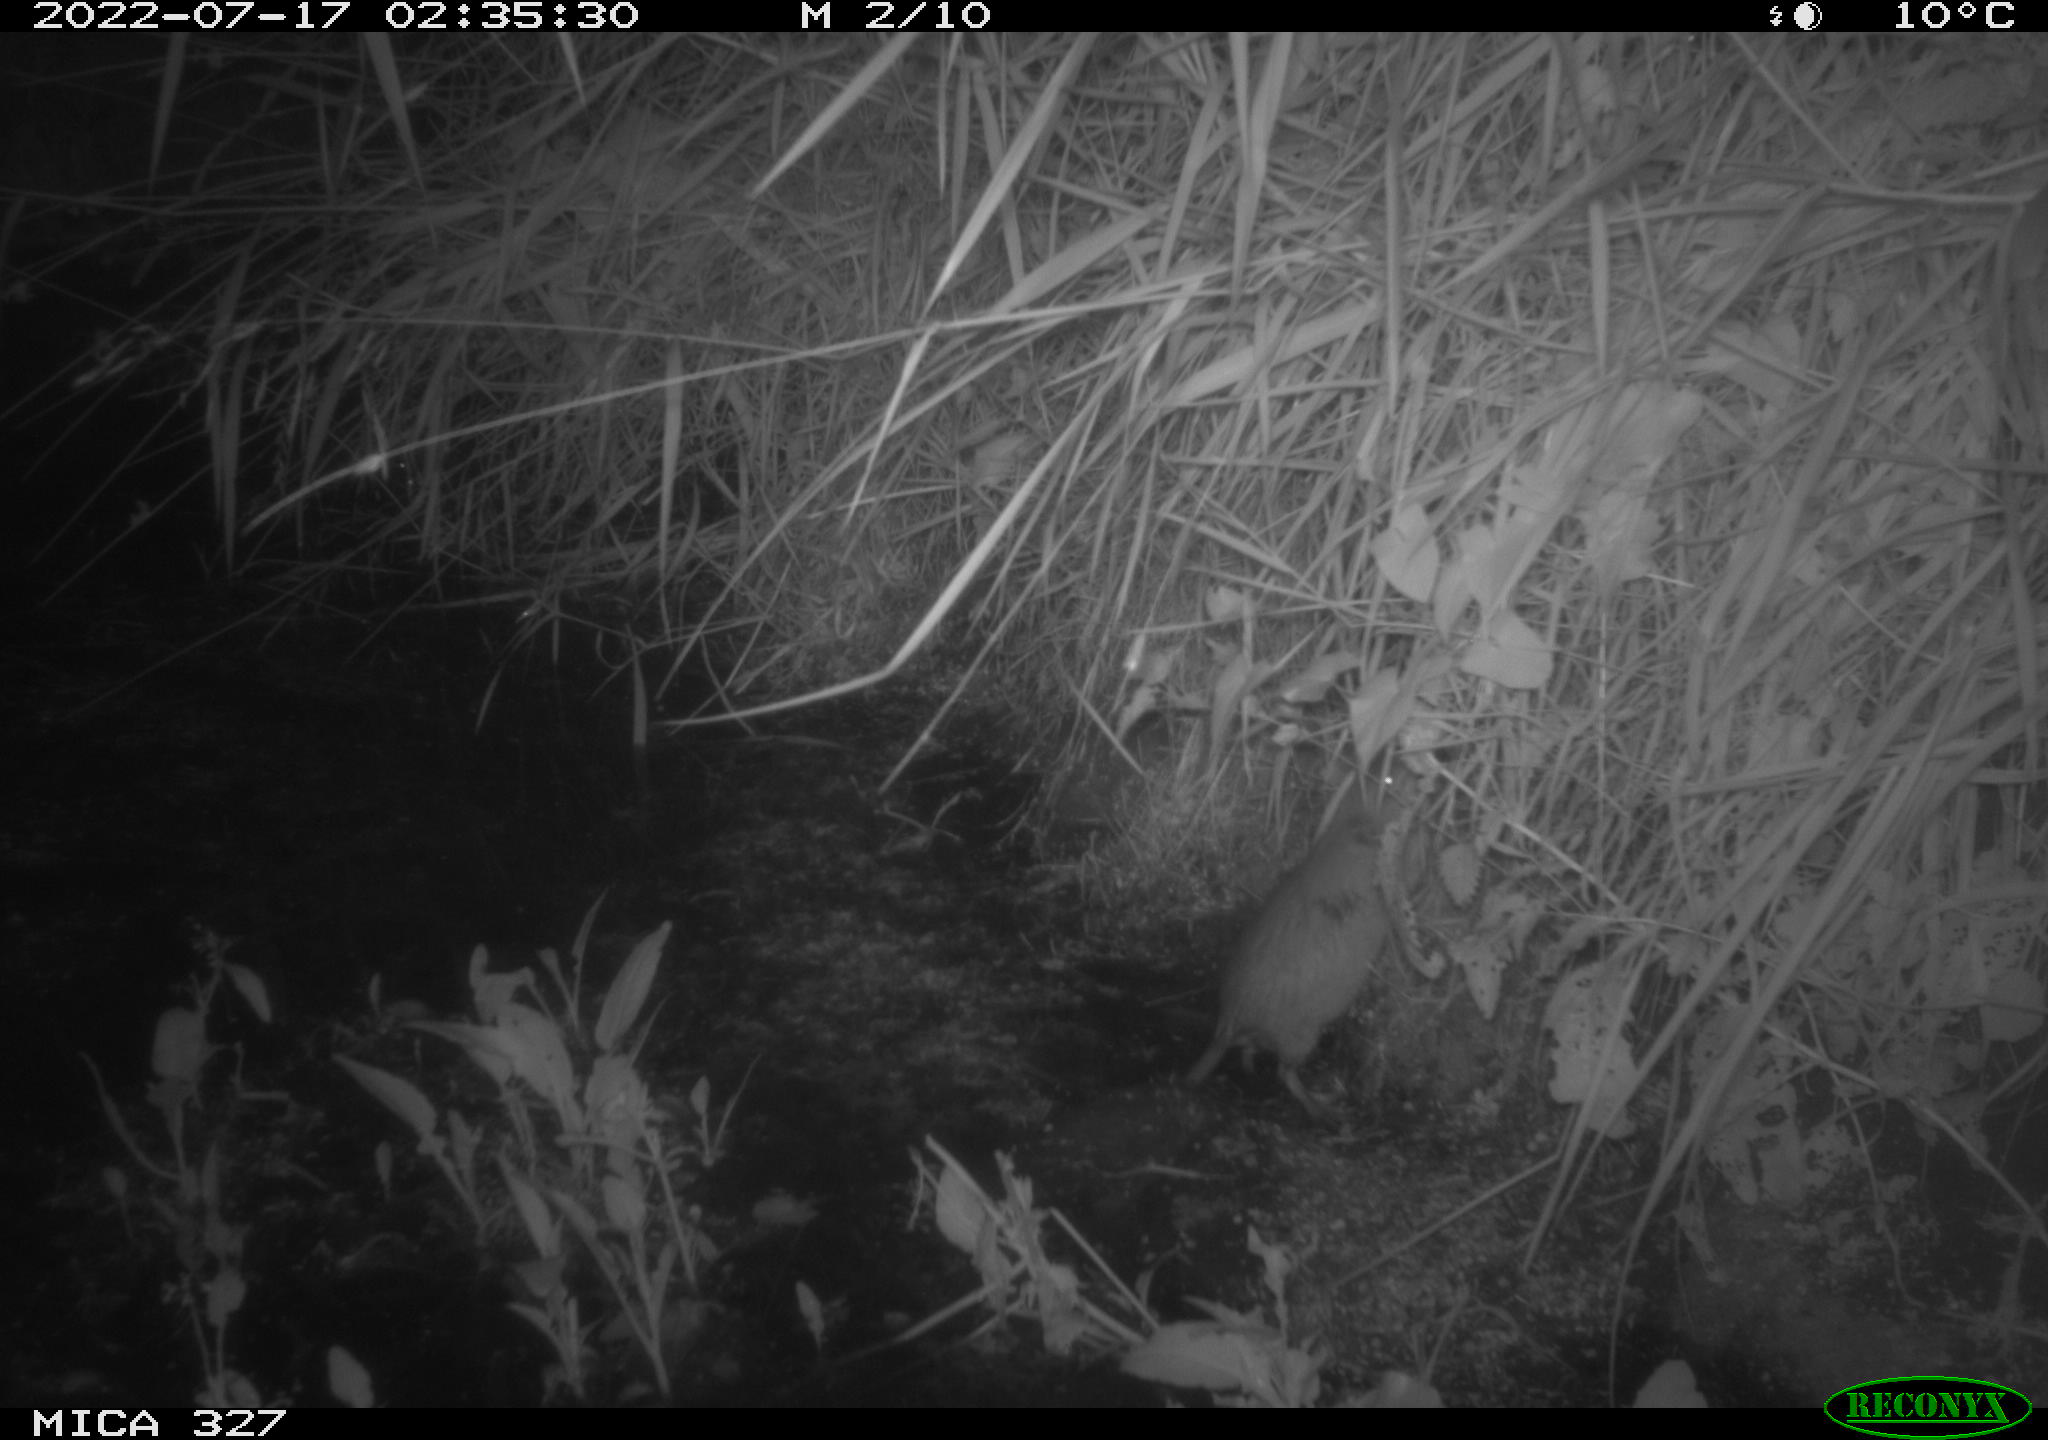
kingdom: Animalia
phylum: Chordata
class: Mammalia
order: Rodentia
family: Cricetidae
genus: Ondatra
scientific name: Ondatra zibethicus
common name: Muskrat
